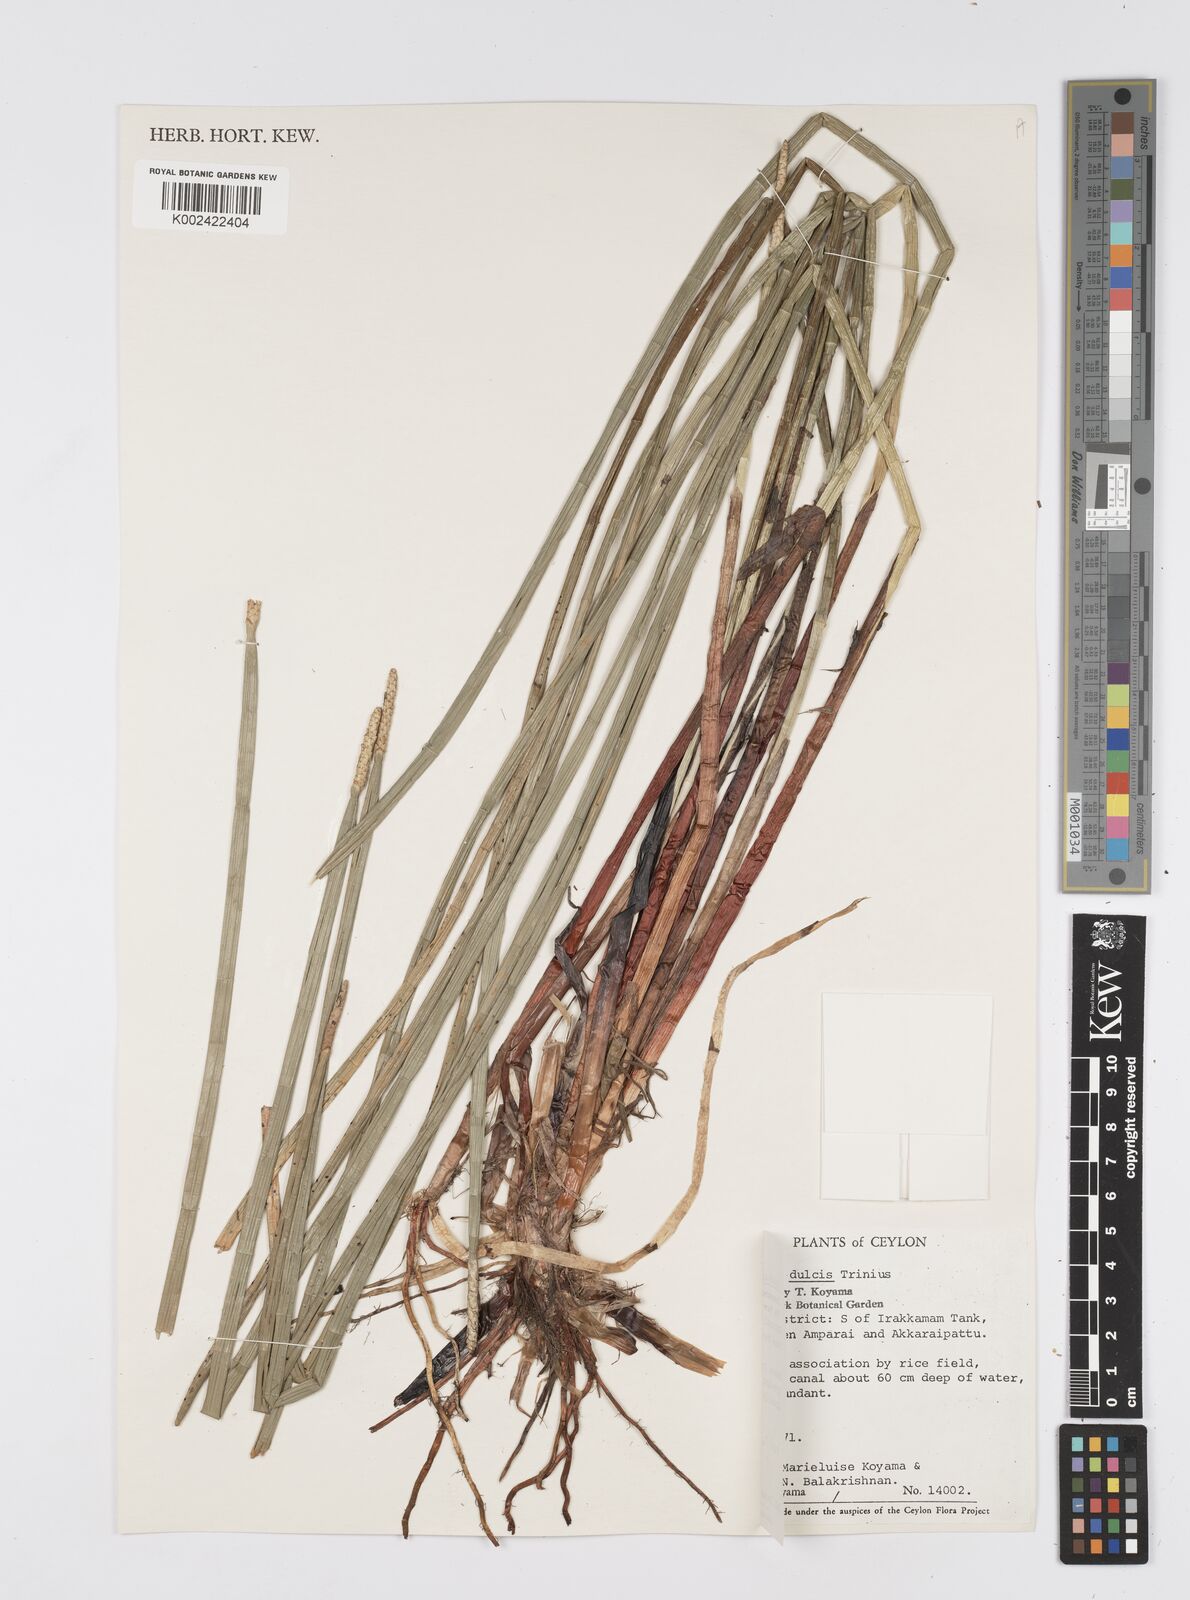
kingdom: Plantae
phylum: Tracheophyta
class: Liliopsida
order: Poales
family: Cyperaceae
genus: Eleocharis
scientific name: Eleocharis dulcis
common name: Chinese water chestnut
